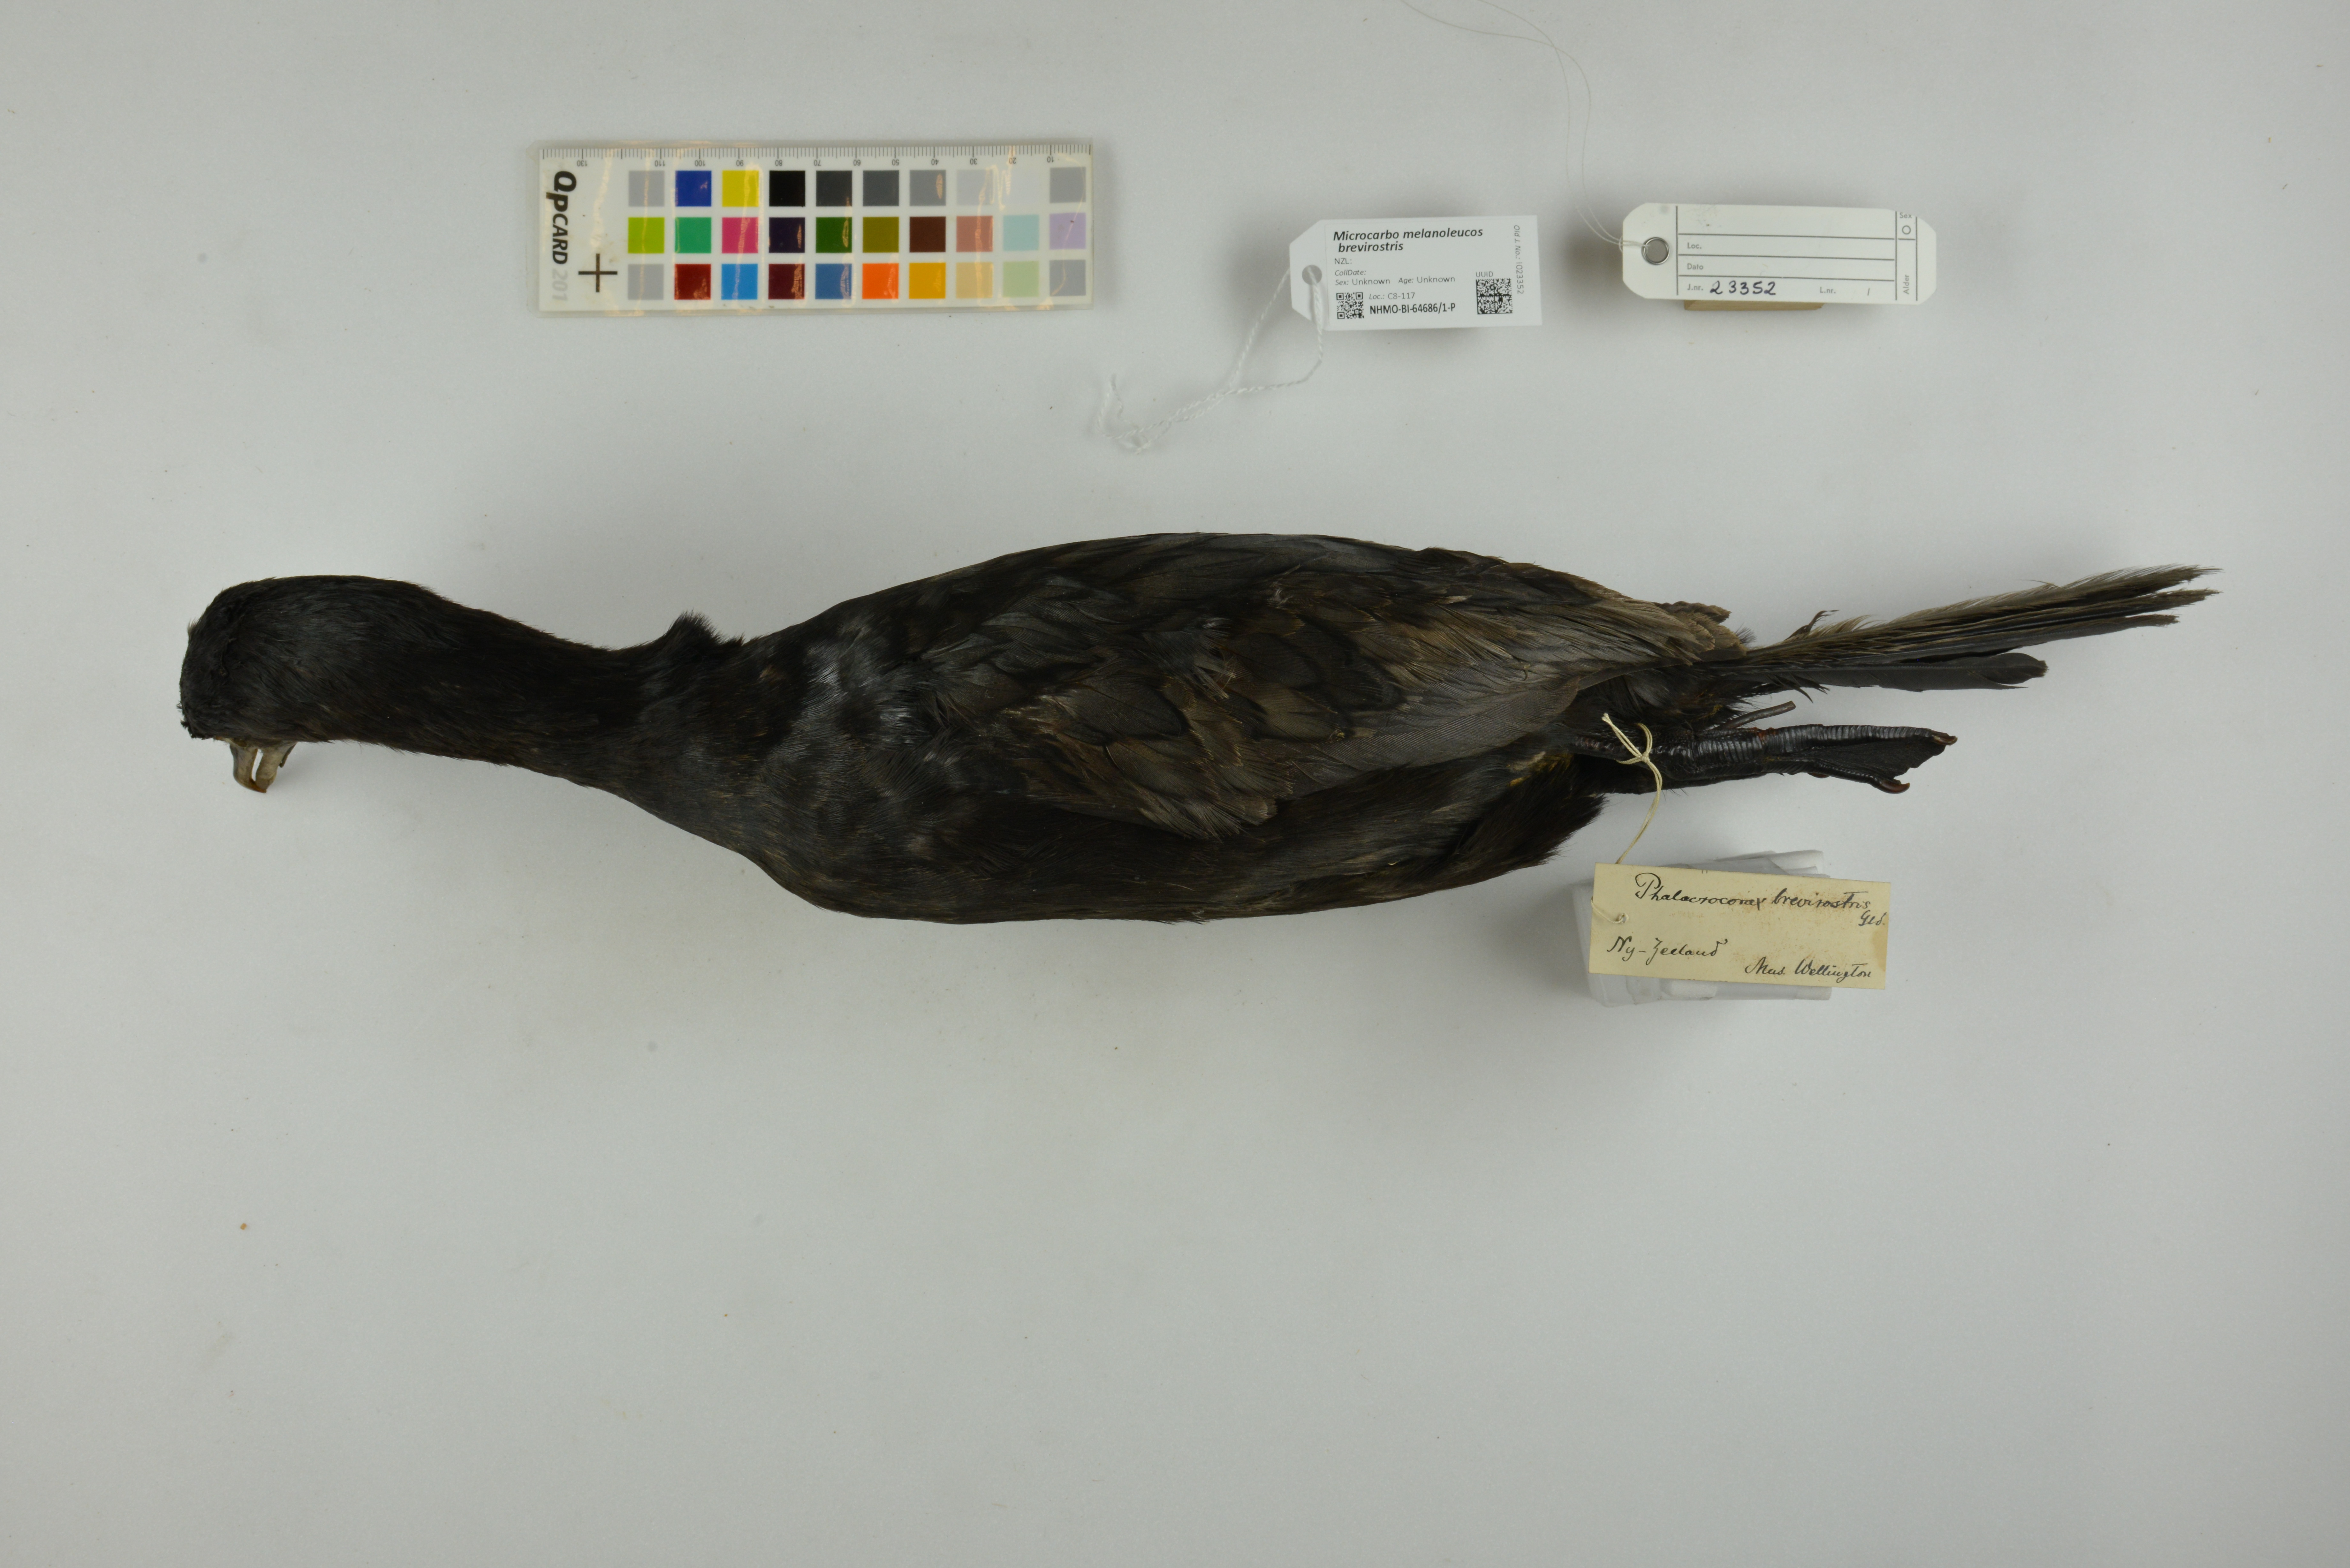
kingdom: Animalia
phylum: Chordata
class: Aves
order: Suliformes
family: Phalacrocoracidae
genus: Microcarbo
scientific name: Microcarbo melanoleucos
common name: Little pied cormorant
